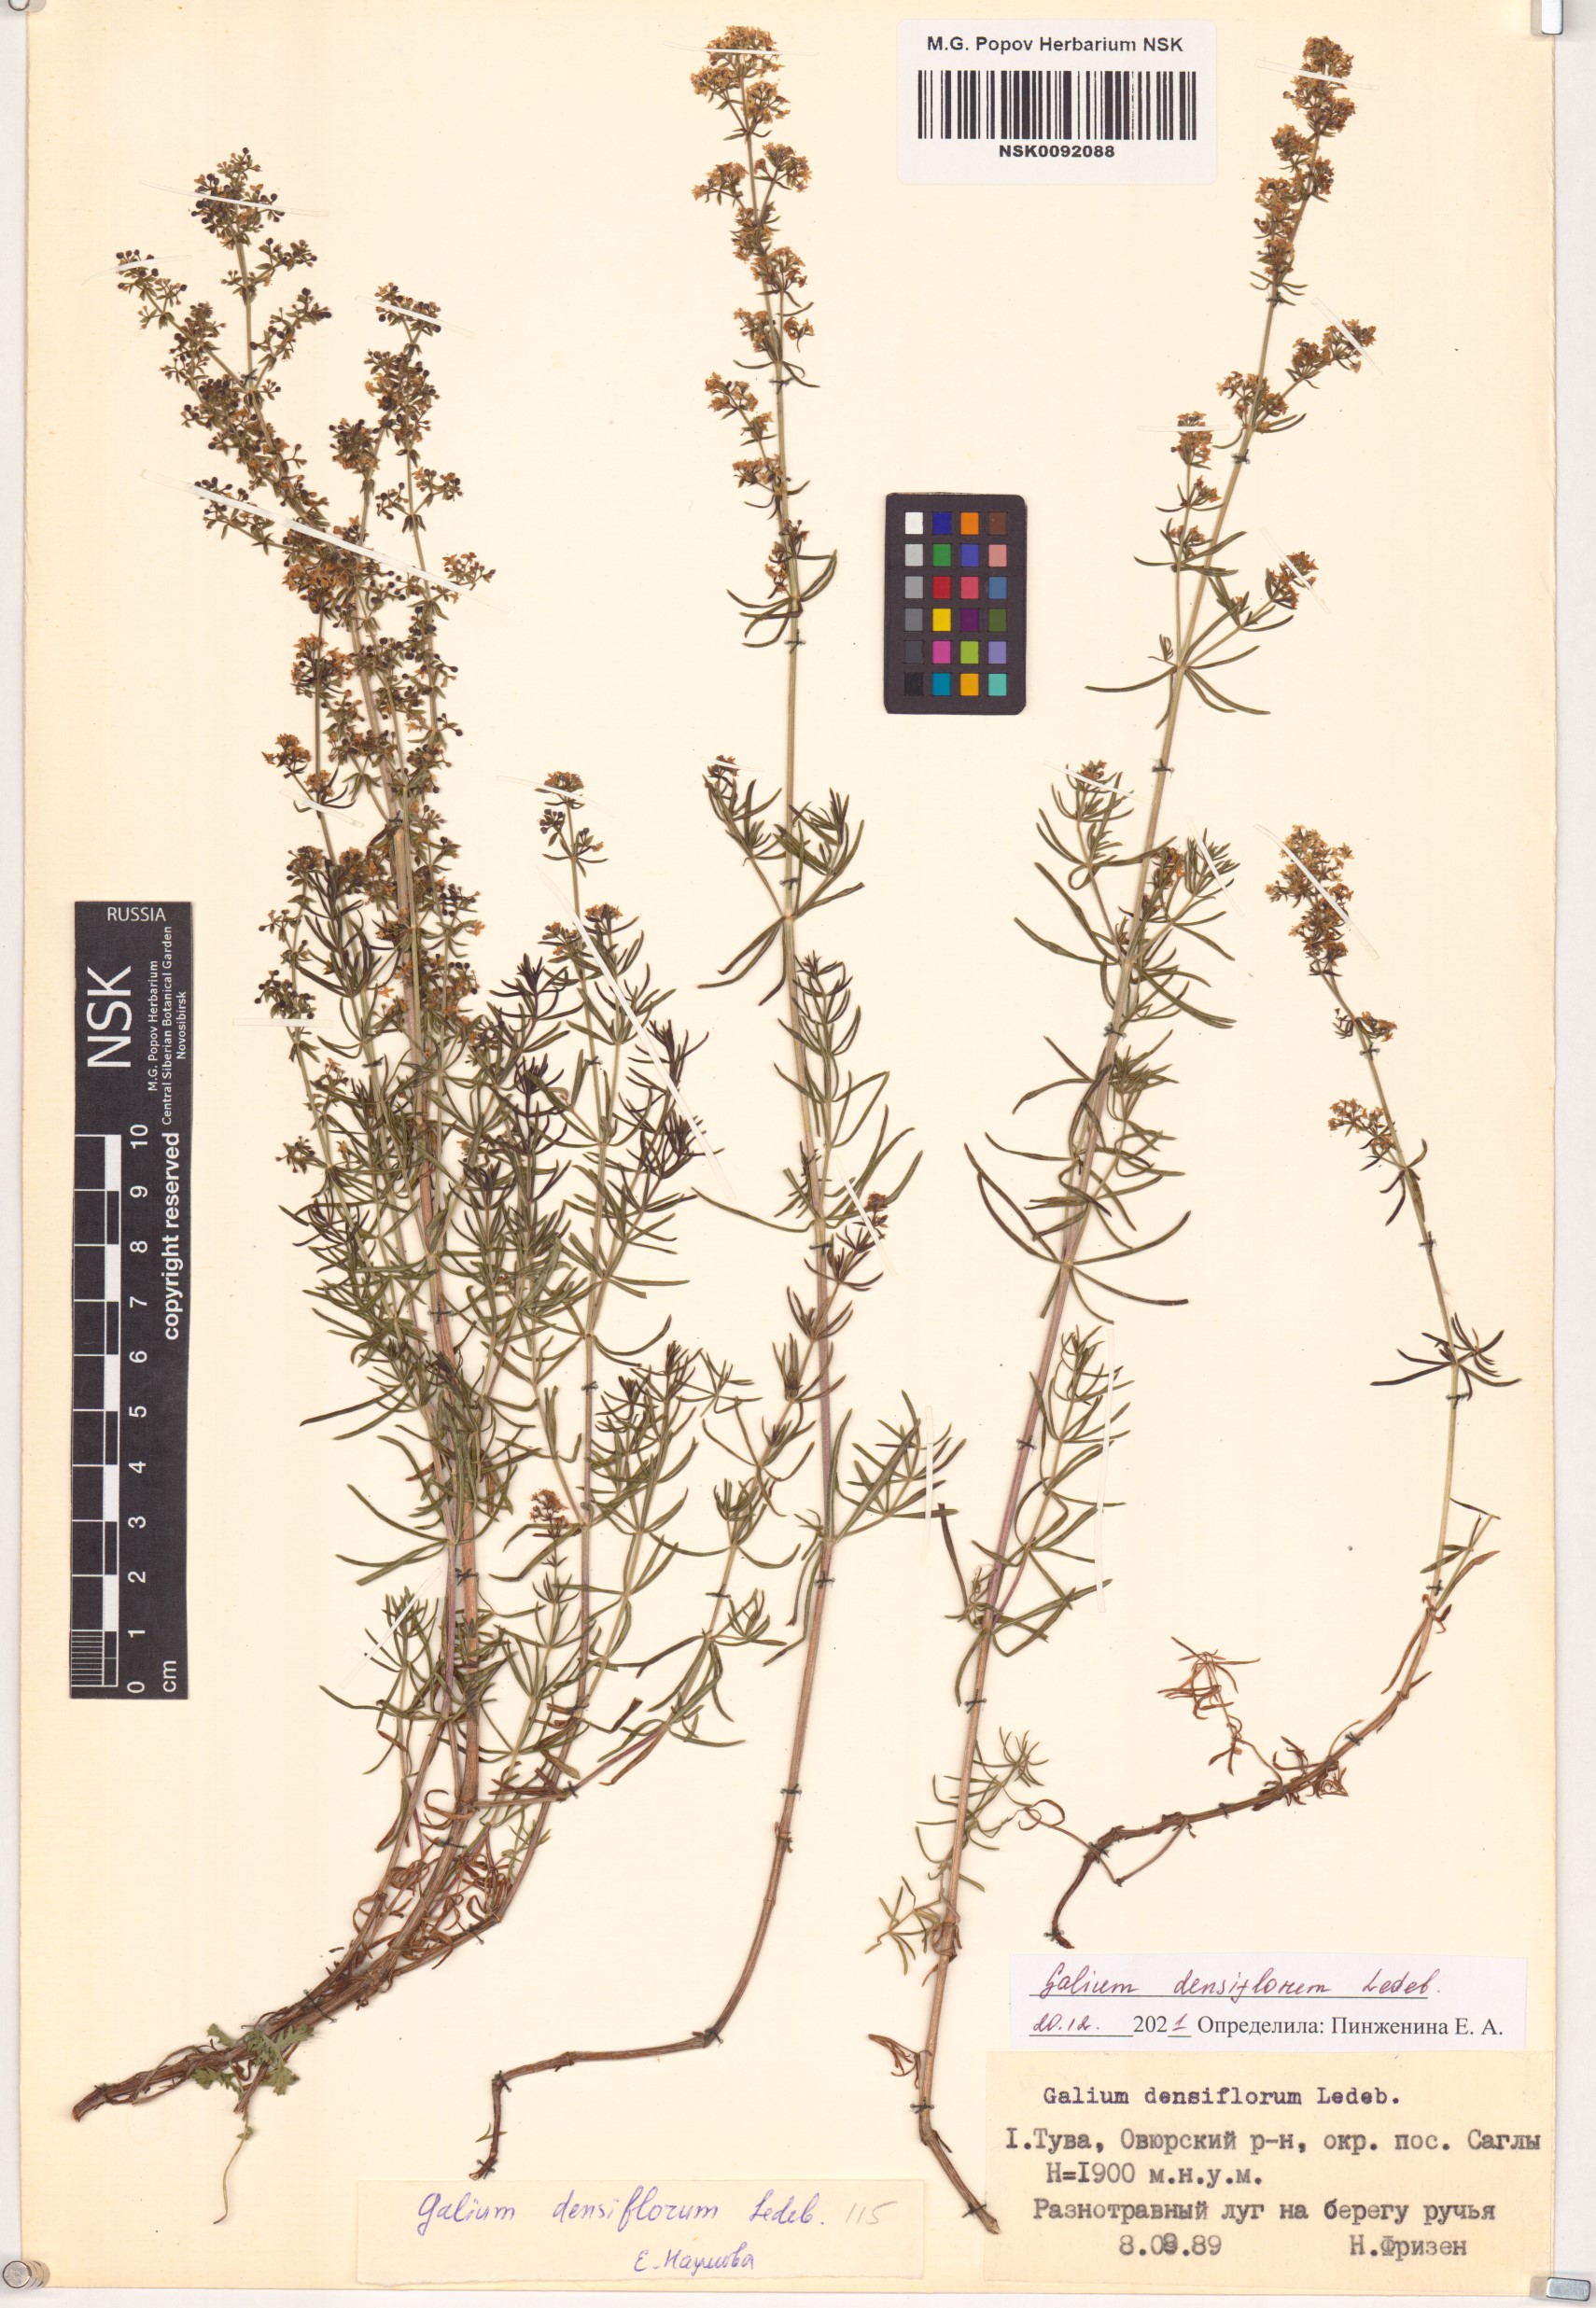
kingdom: Plantae
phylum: Tracheophyta
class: Magnoliopsida
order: Gentianales
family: Rubiaceae
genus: Galium
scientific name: Galium densiflorum
